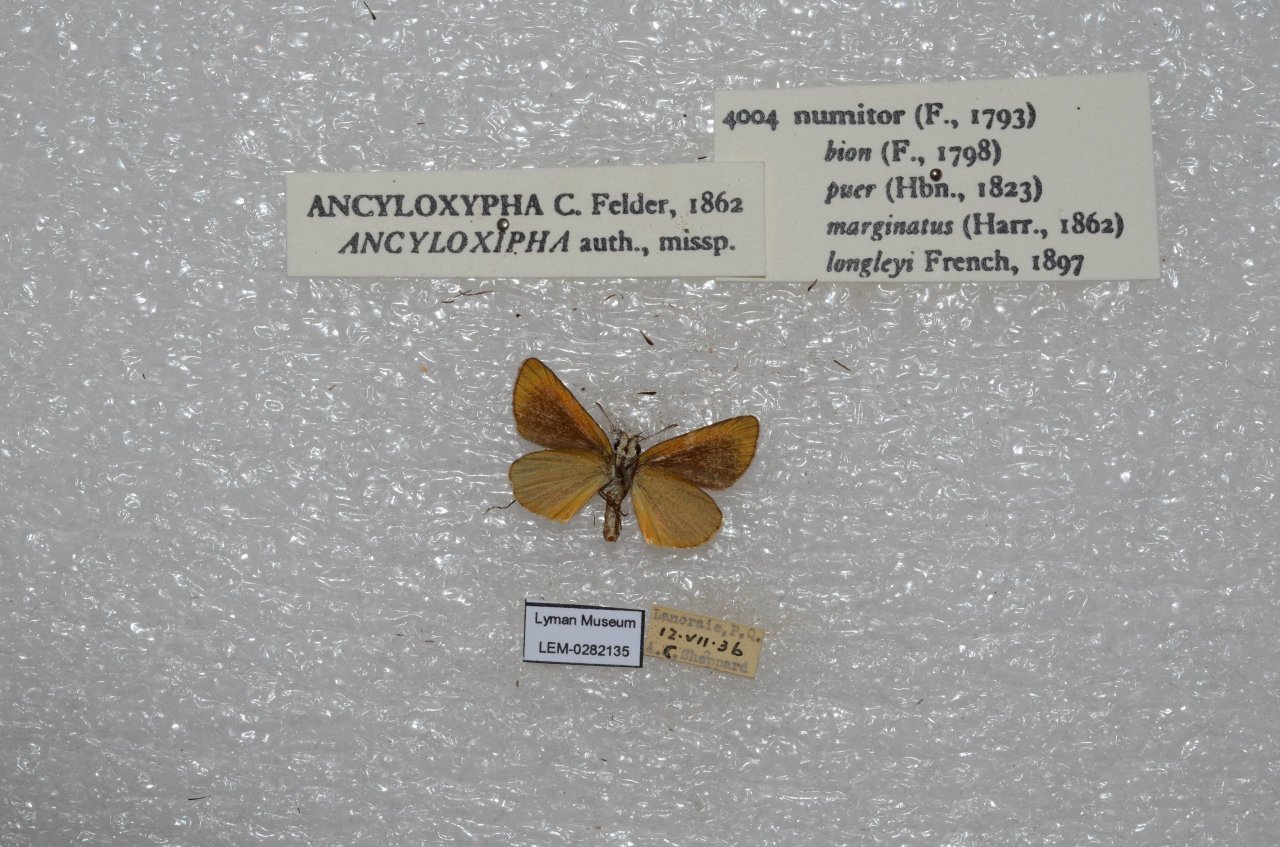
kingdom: Animalia
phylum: Arthropoda
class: Insecta
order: Lepidoptera
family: Hesperiidae
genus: Ancyloxypha
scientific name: Ancyloxypha numitor
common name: Least Skipper
